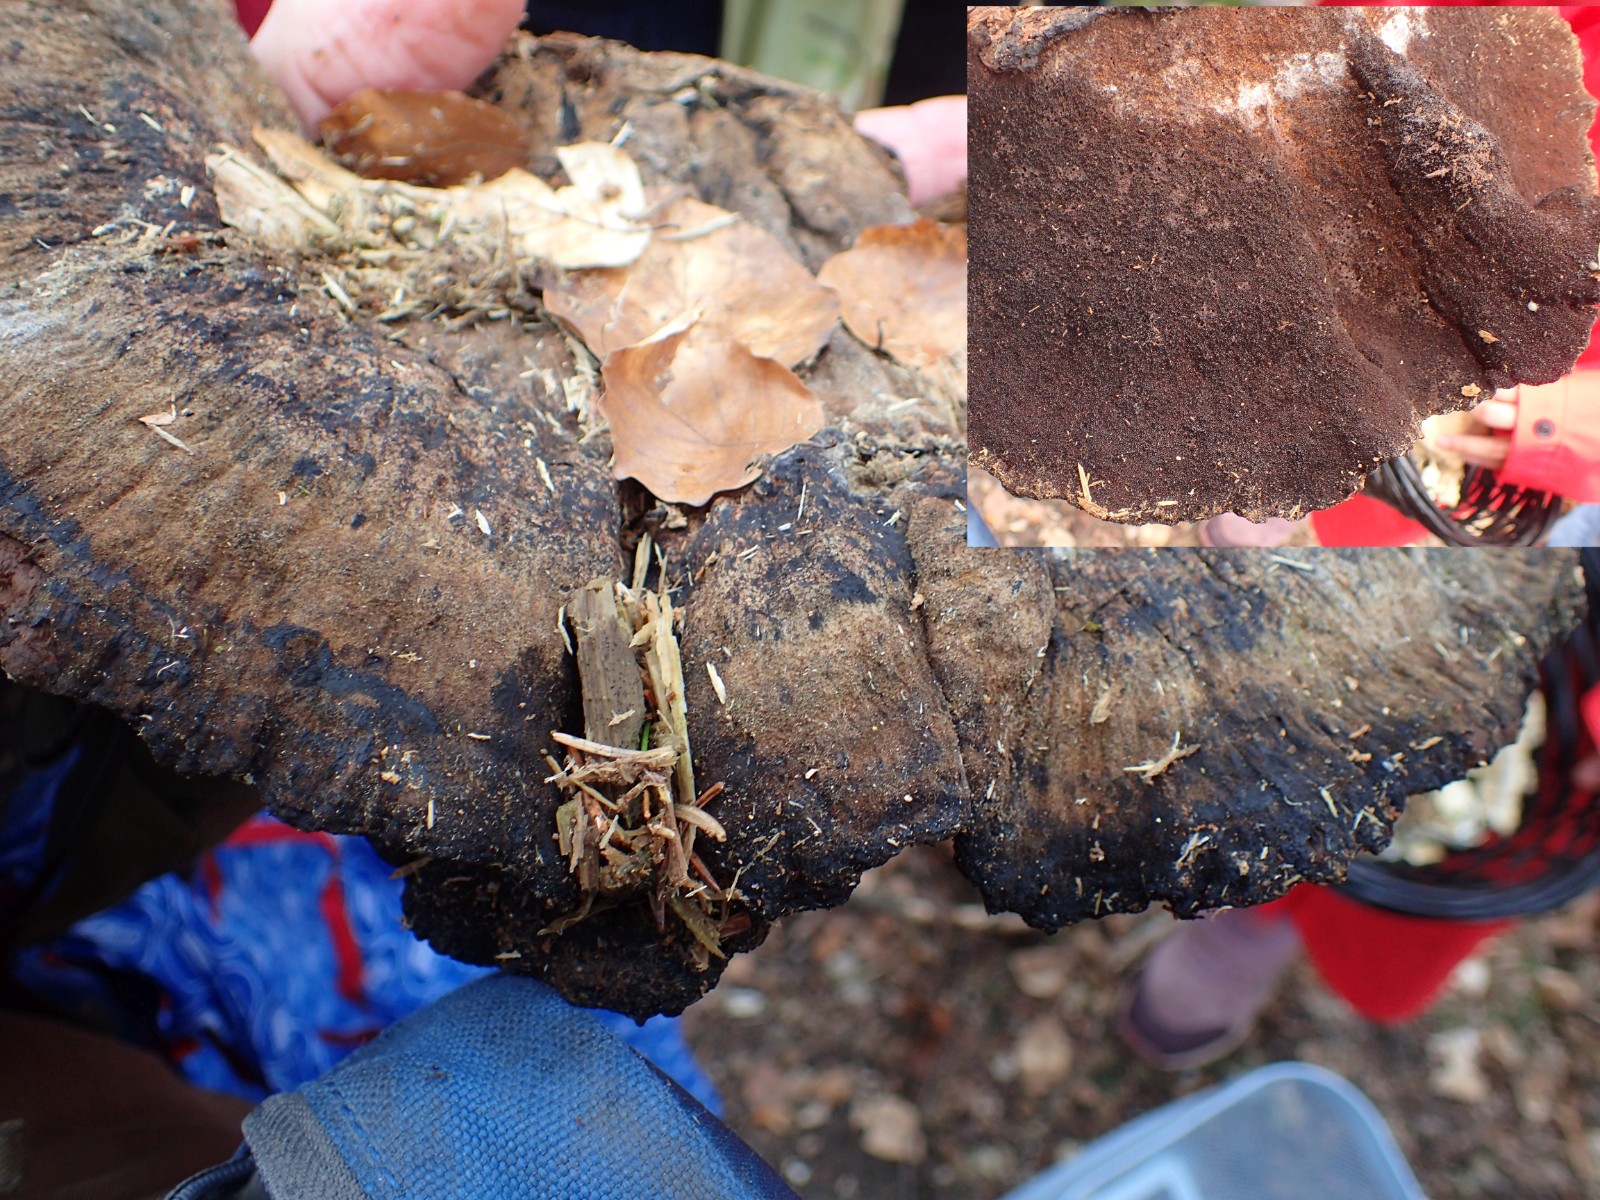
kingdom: Fungi
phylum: Basidiomycota
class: Agaricomycetes
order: Polyporales
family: Ischnodermataceae
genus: Ischnoderma
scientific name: Ischnoderma resinosum
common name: løv-tjæreporesvamp
